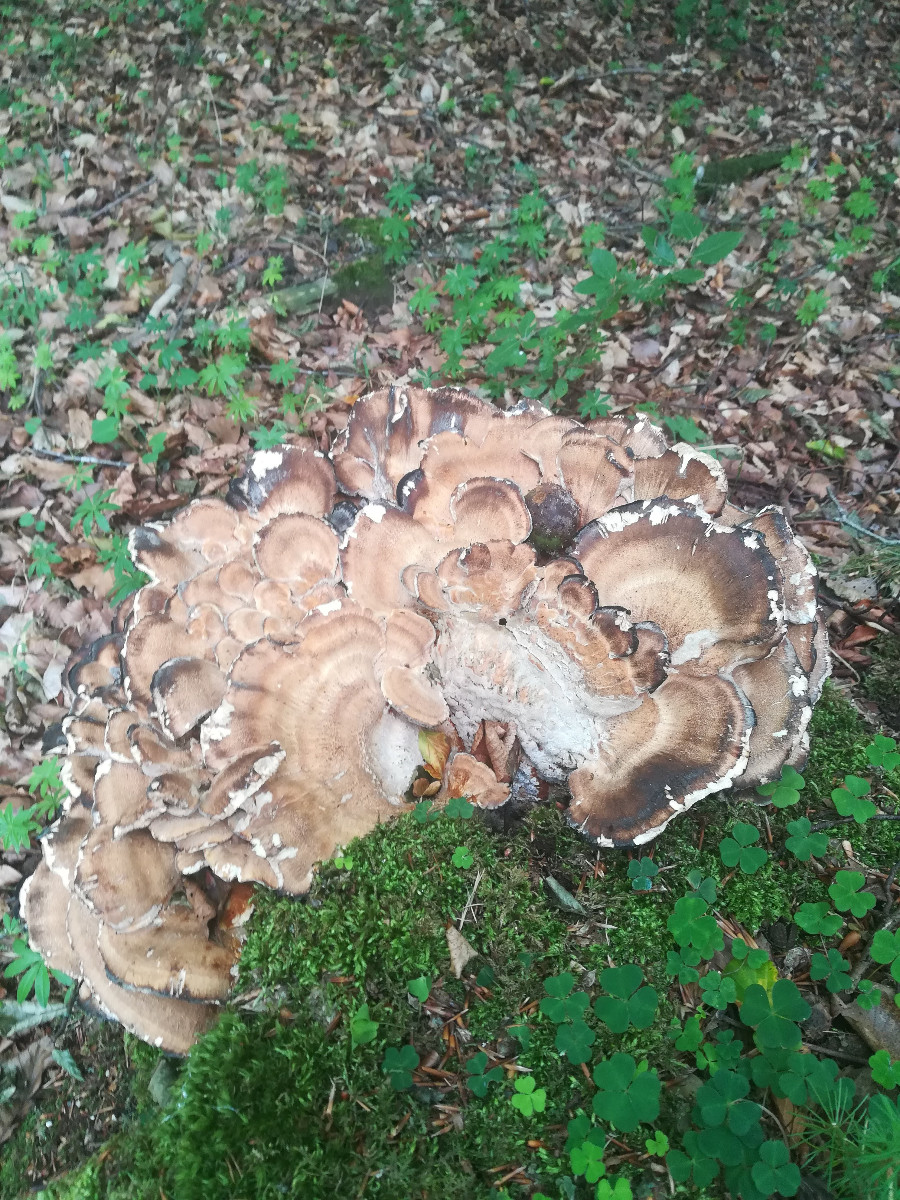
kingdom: Fungi
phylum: Basidiomycota
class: Agaricomycetes
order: Polyporales
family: Meripilaceae
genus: Meripilus
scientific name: Meripilus giganteus
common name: kæmpeporesvamp
